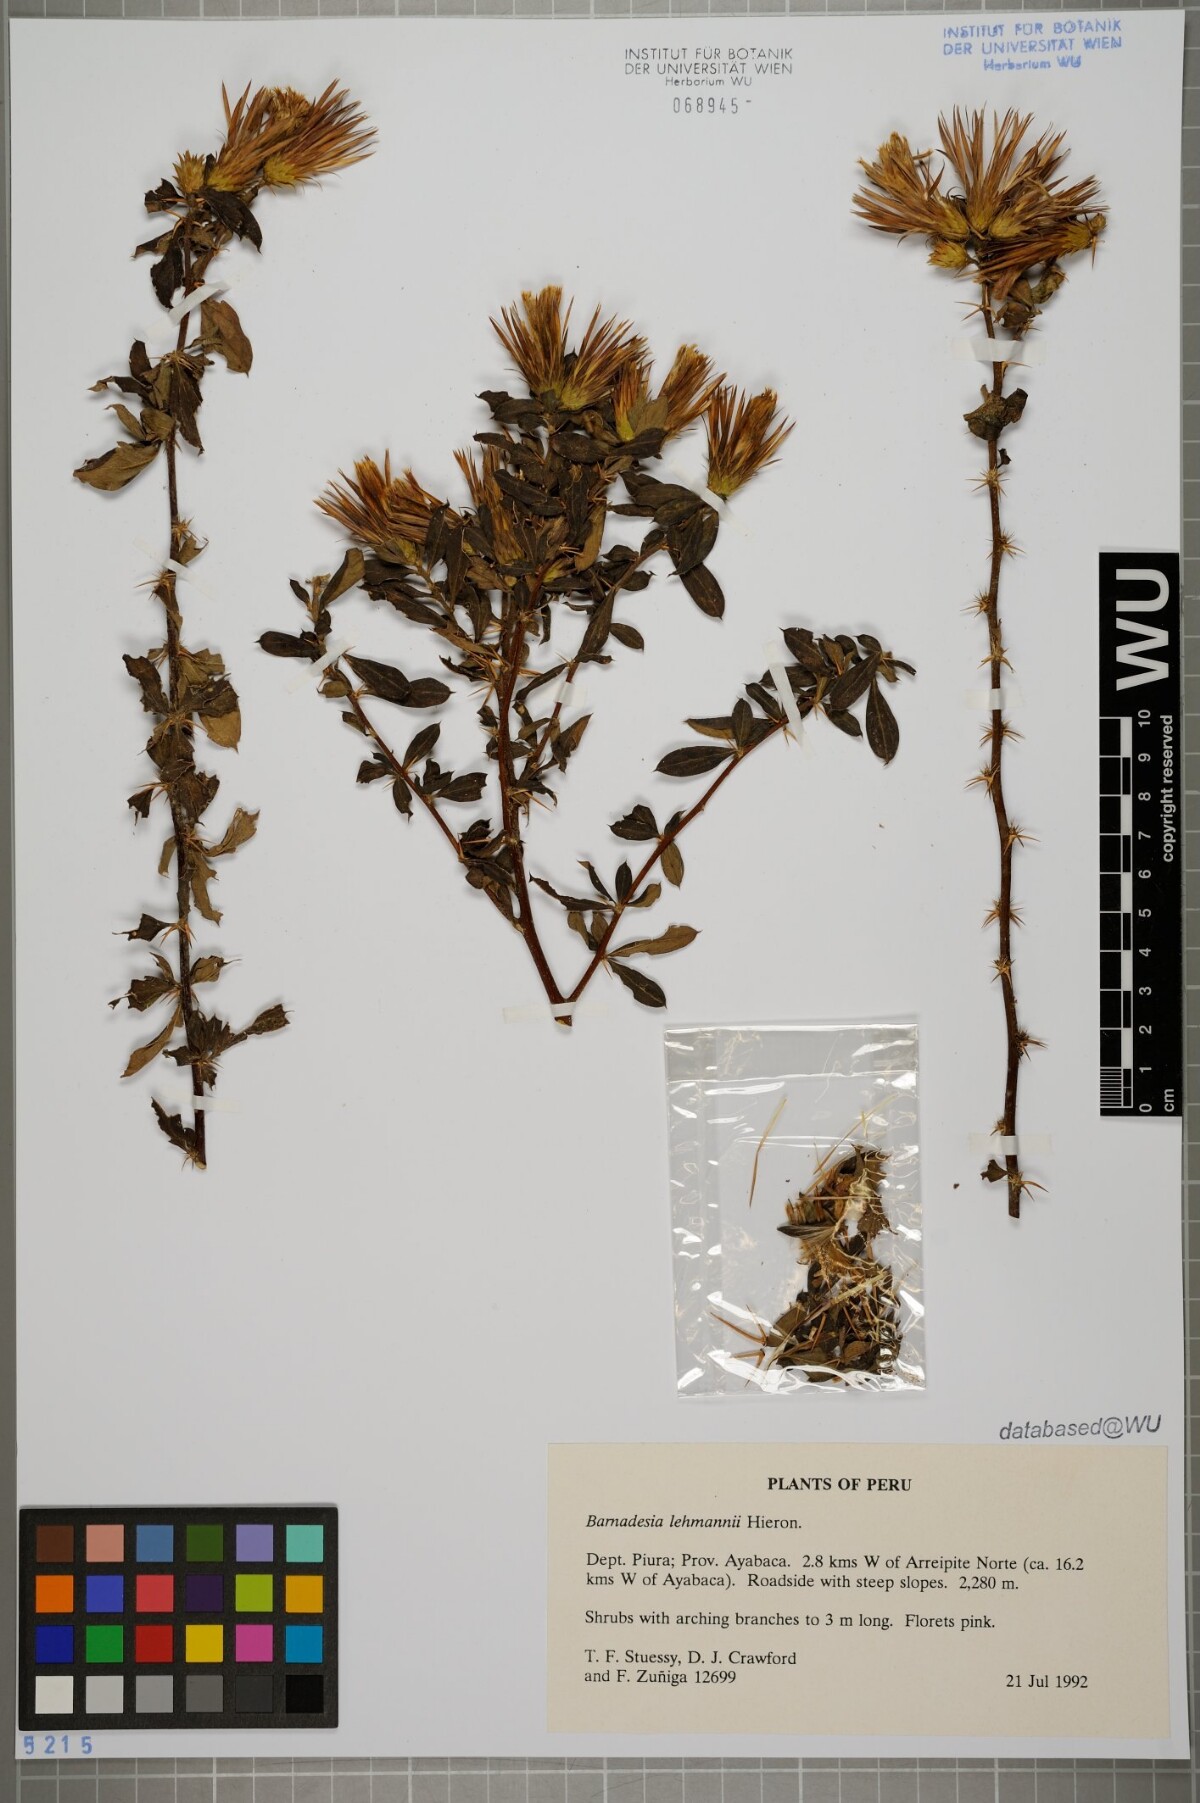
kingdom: Plantae
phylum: Tracheophyta
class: Magnoliopsida
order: Asterales
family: Asteraceae
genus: Barnadesia
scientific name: Barnadesia lehmannii
